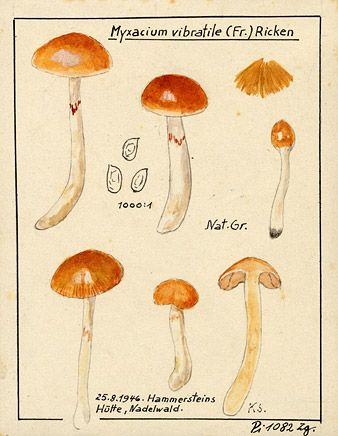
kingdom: Fungi
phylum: Basidiomycota
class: Agaricomycetes
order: Agaricales
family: Cortinariaceae
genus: Thaxterogaster
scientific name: Thaxterogaster vibratilis
